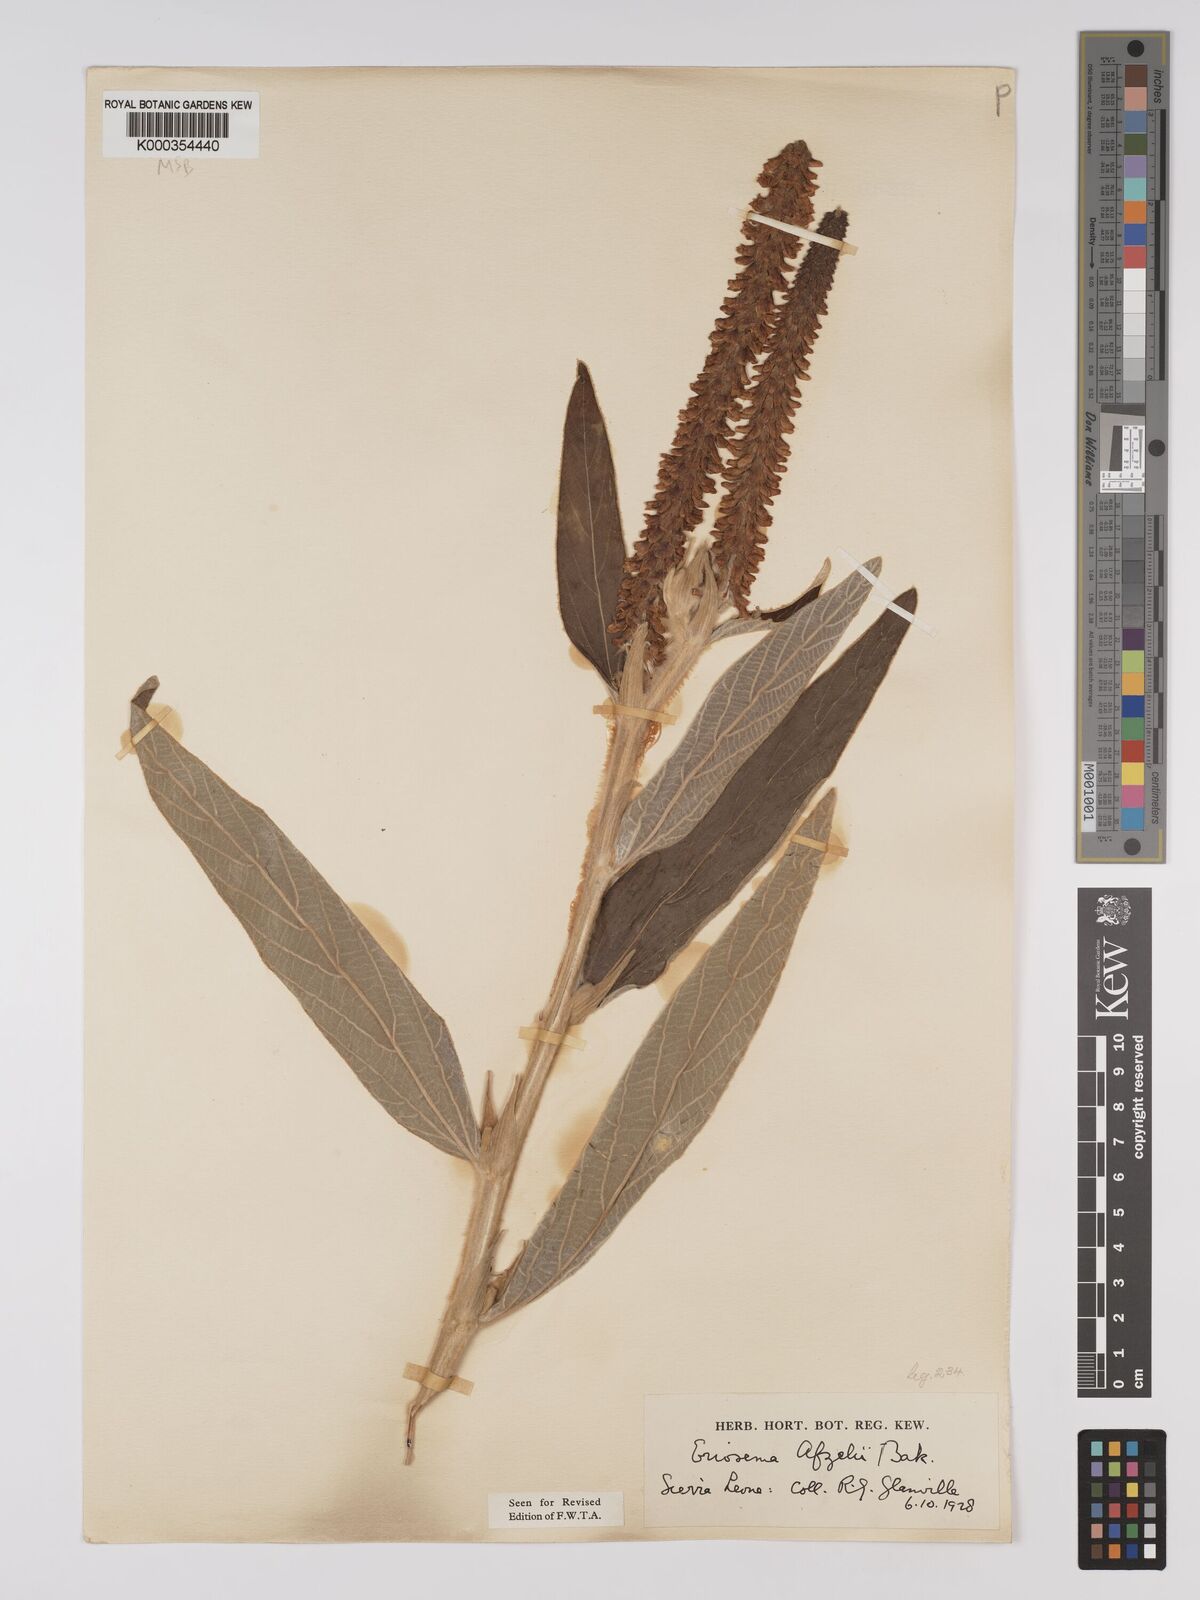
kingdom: Plantae
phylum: Tracheophyta
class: Magnoliopsida
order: Fabales
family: Fabaceae
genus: Eriosema
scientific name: Eriosema afzelii
